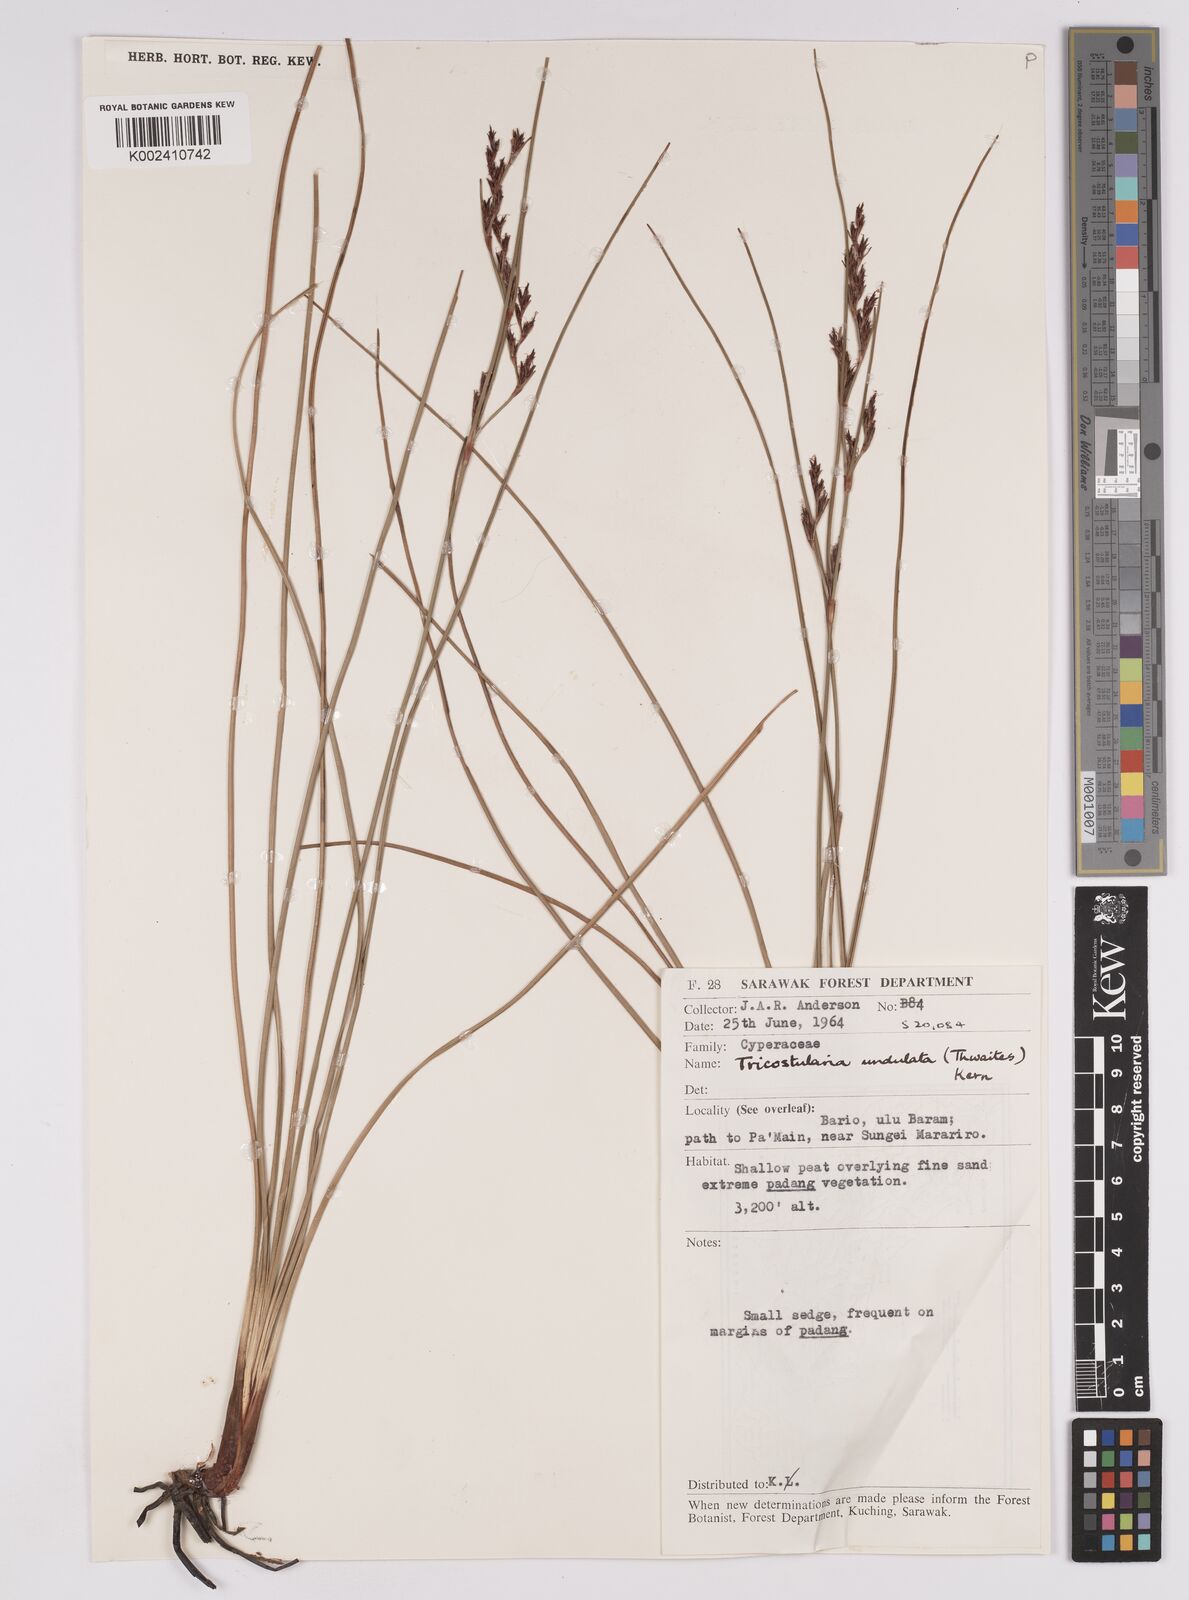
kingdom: Plantae
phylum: Tracheophyta
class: Liliopsida
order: Poales
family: Cyperaceae
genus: Anthelepis
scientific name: Anthelepis undulata
